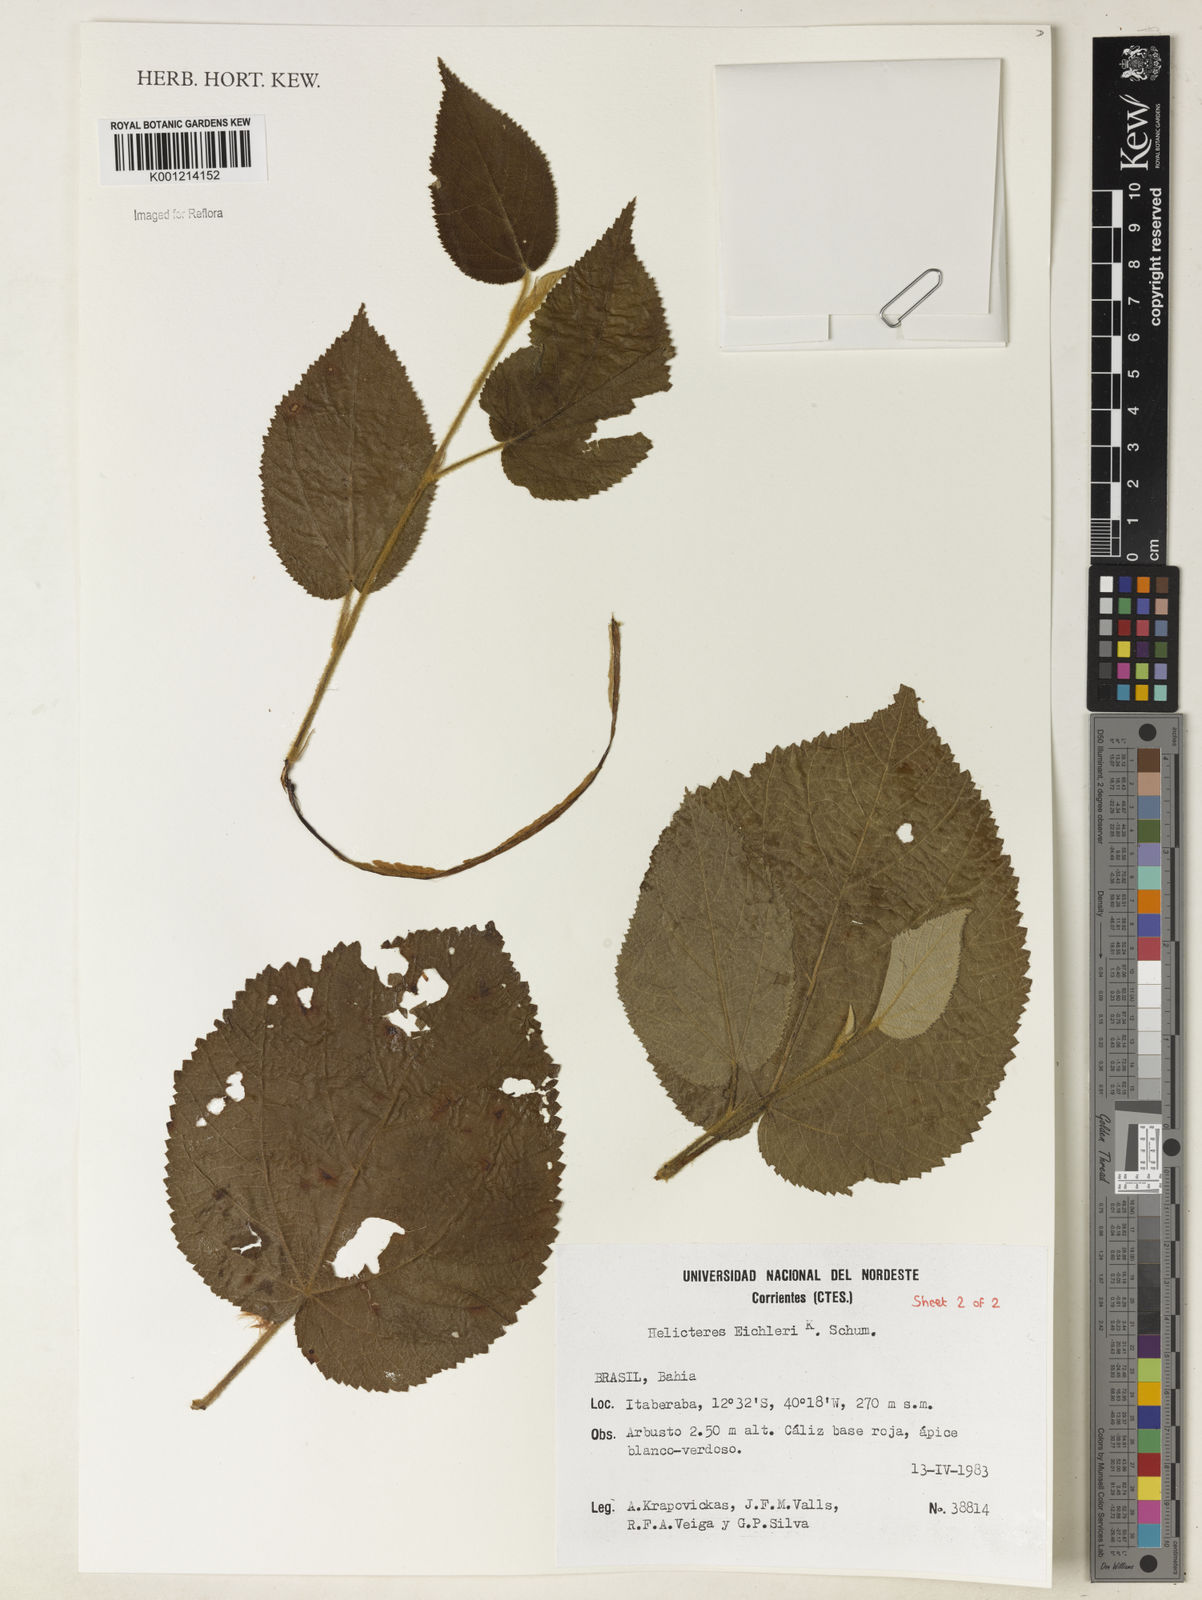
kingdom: Plantae
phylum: Tracheophyta
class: Magnoliopsida
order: Malvales
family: Malvaceae
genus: Helicteres
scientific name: Helicteres eichleri
